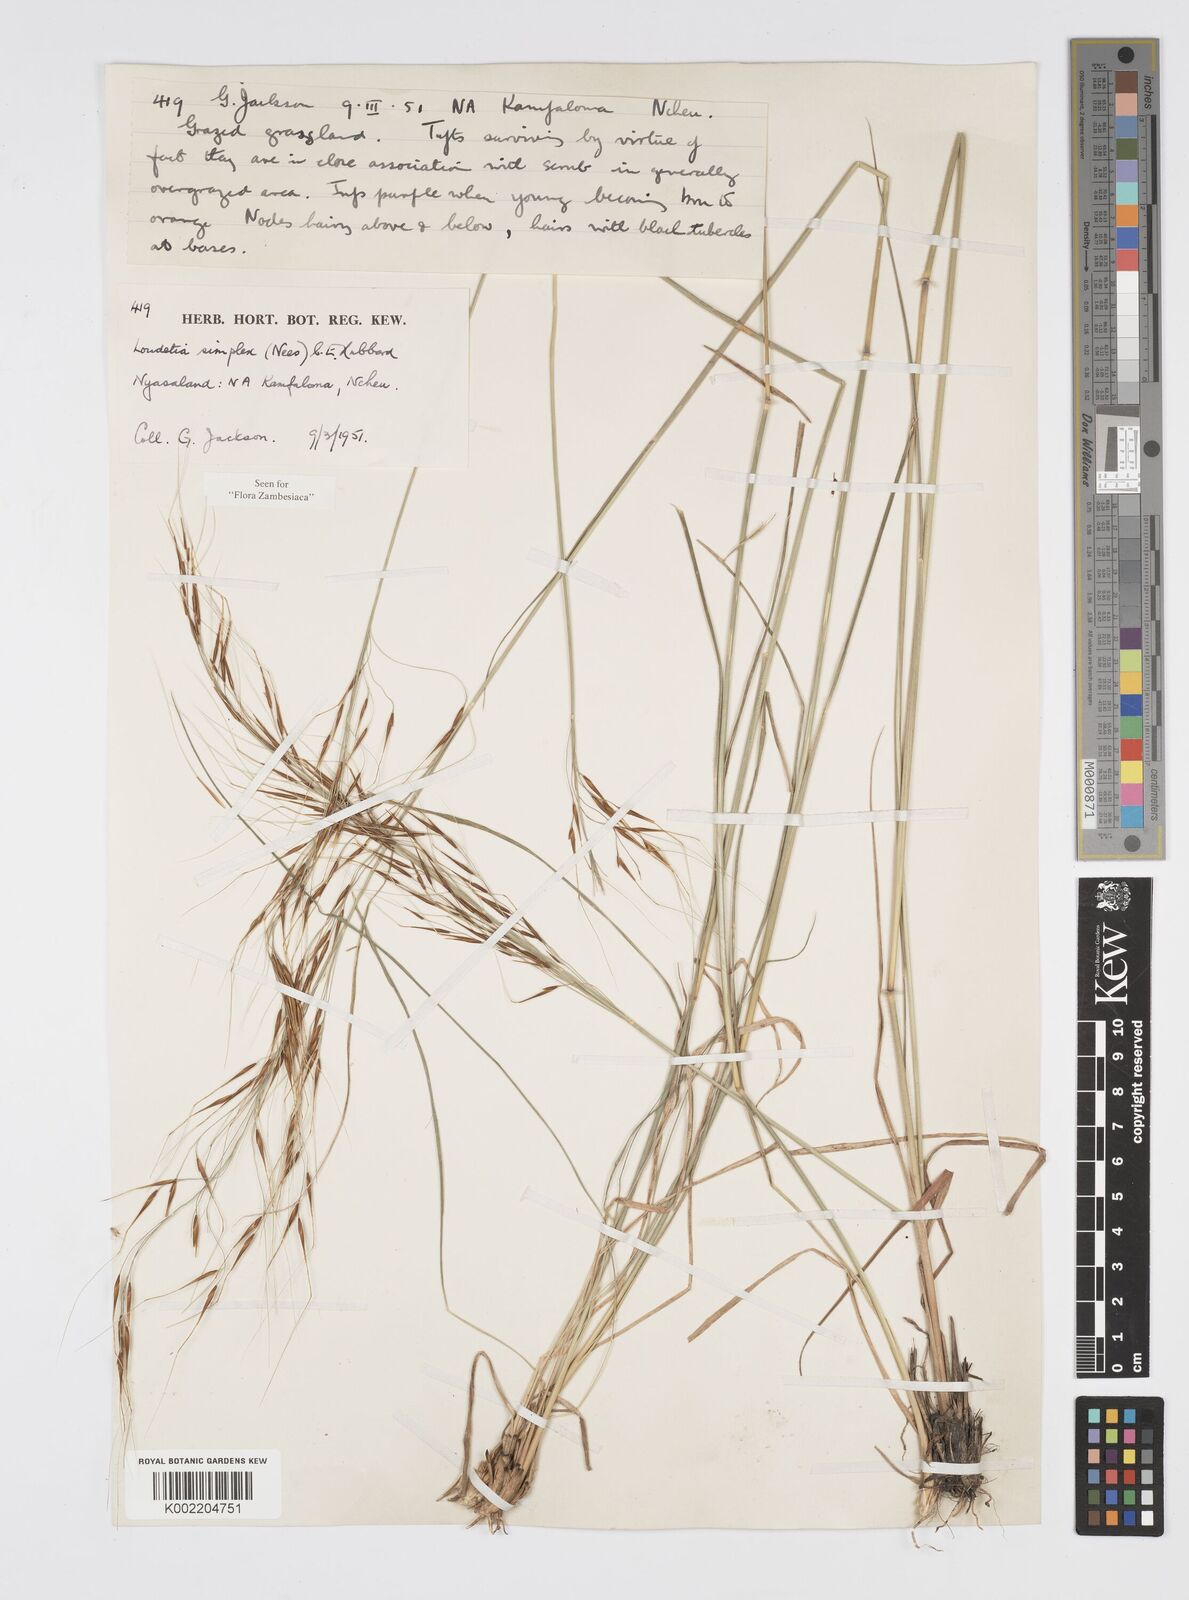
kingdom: Plantae
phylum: Tracheophyta
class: Liliopsida
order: Poales
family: Poaceae
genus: Loudetia
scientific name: Loudetia simplex
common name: Common russet grass
